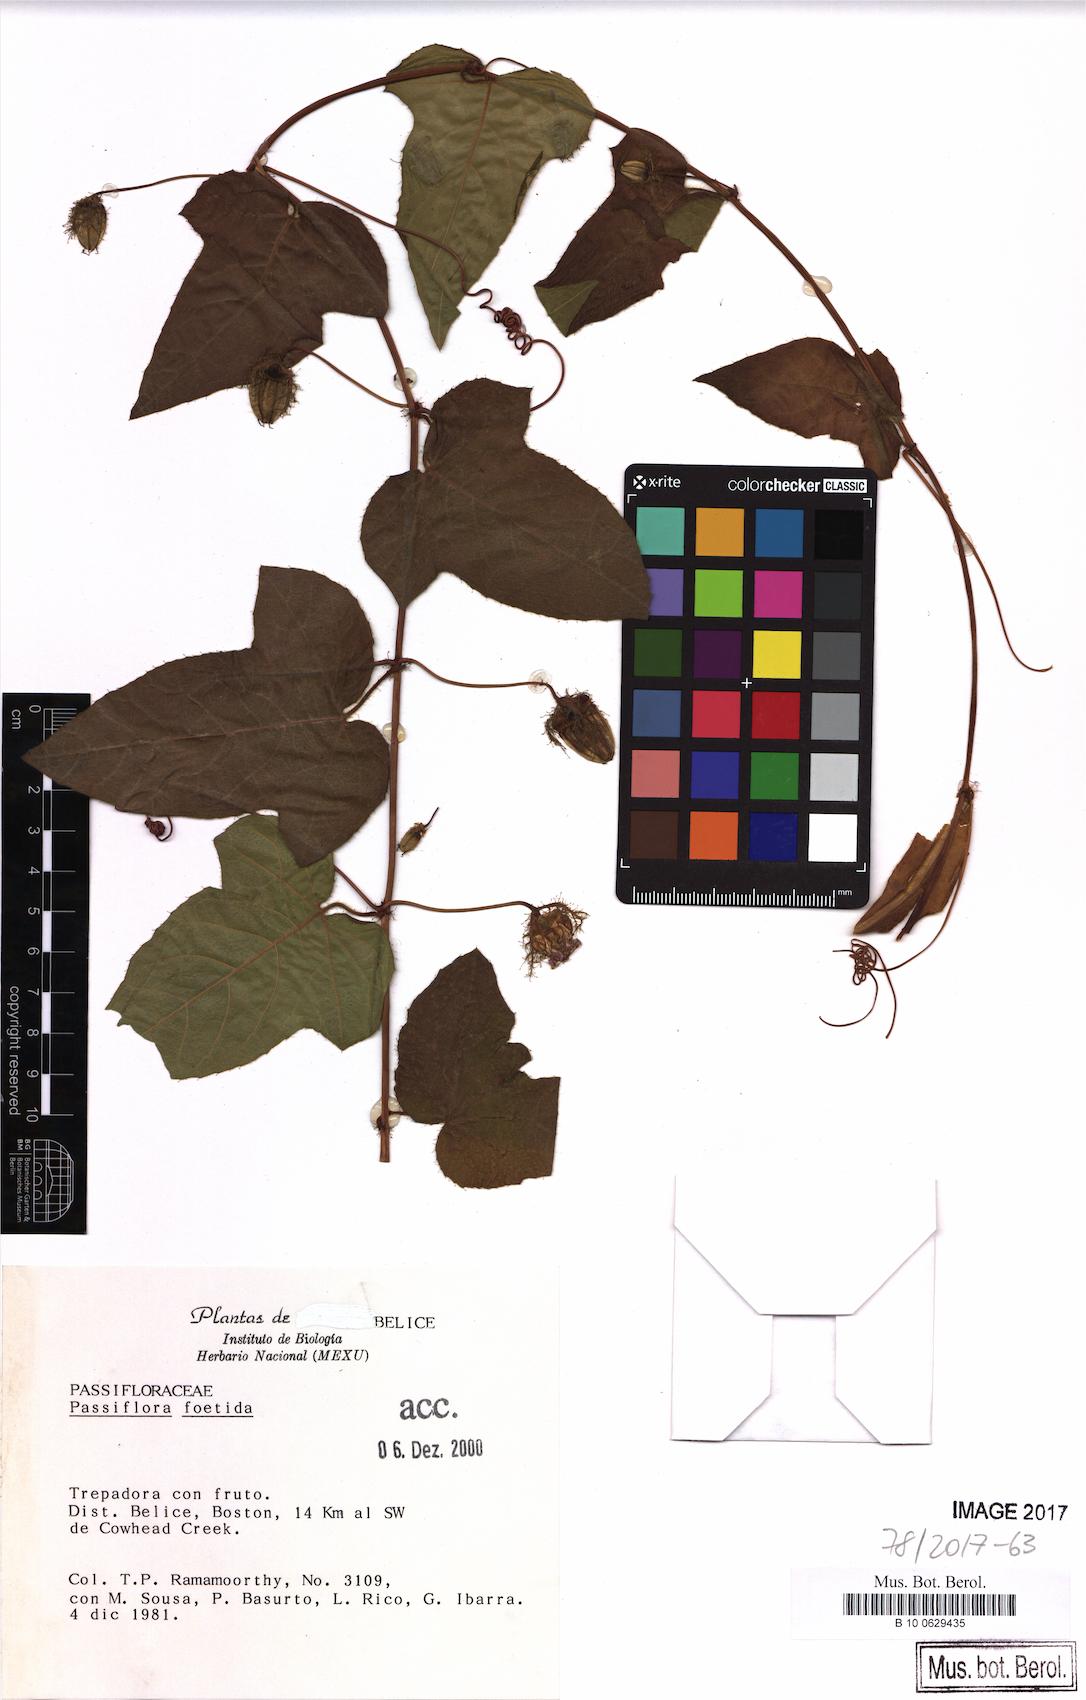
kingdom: Plantae
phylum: Tracheophyta
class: Magnoliopsida
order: Malpighiales
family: Passifloraceae
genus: Passiflora
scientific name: Passiflora foetida
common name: Fetid passionflower
